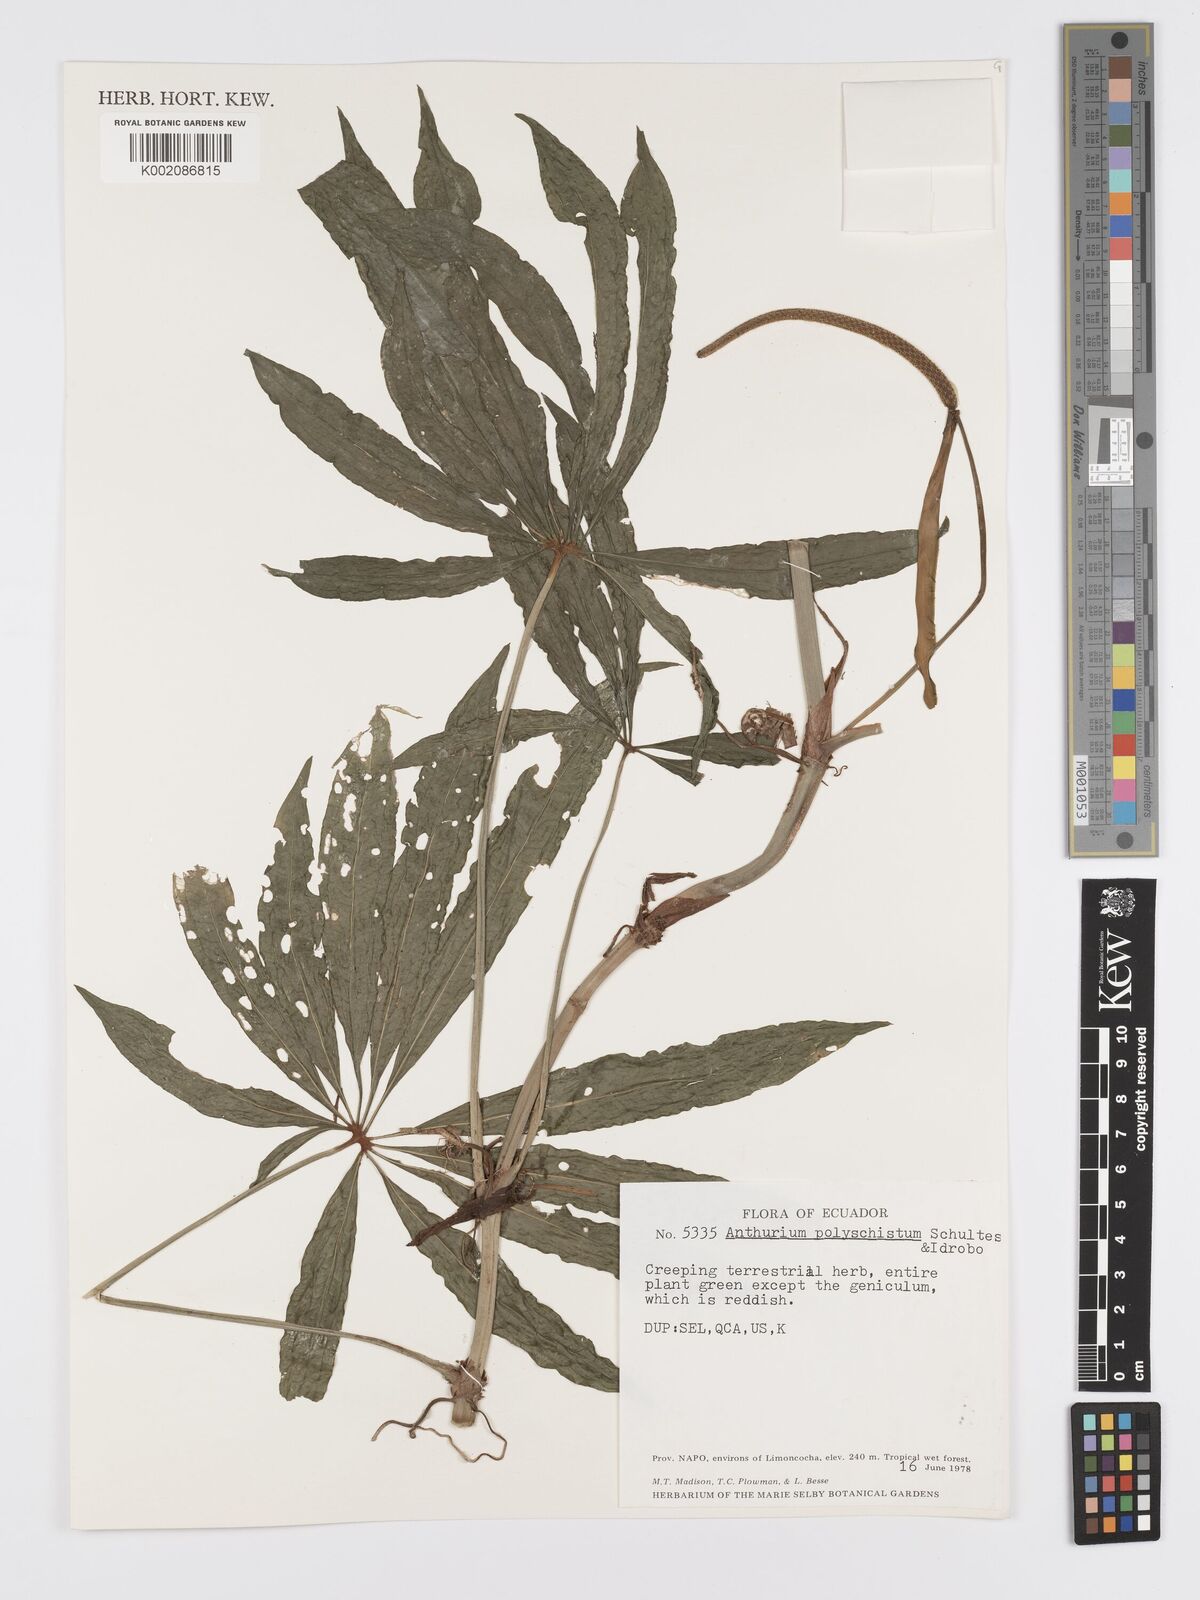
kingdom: Plantae
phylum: Tracheophyta
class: Liliopsida
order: Alismatales
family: Araceae
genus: Anthurium
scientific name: Anthurium polyschistum
